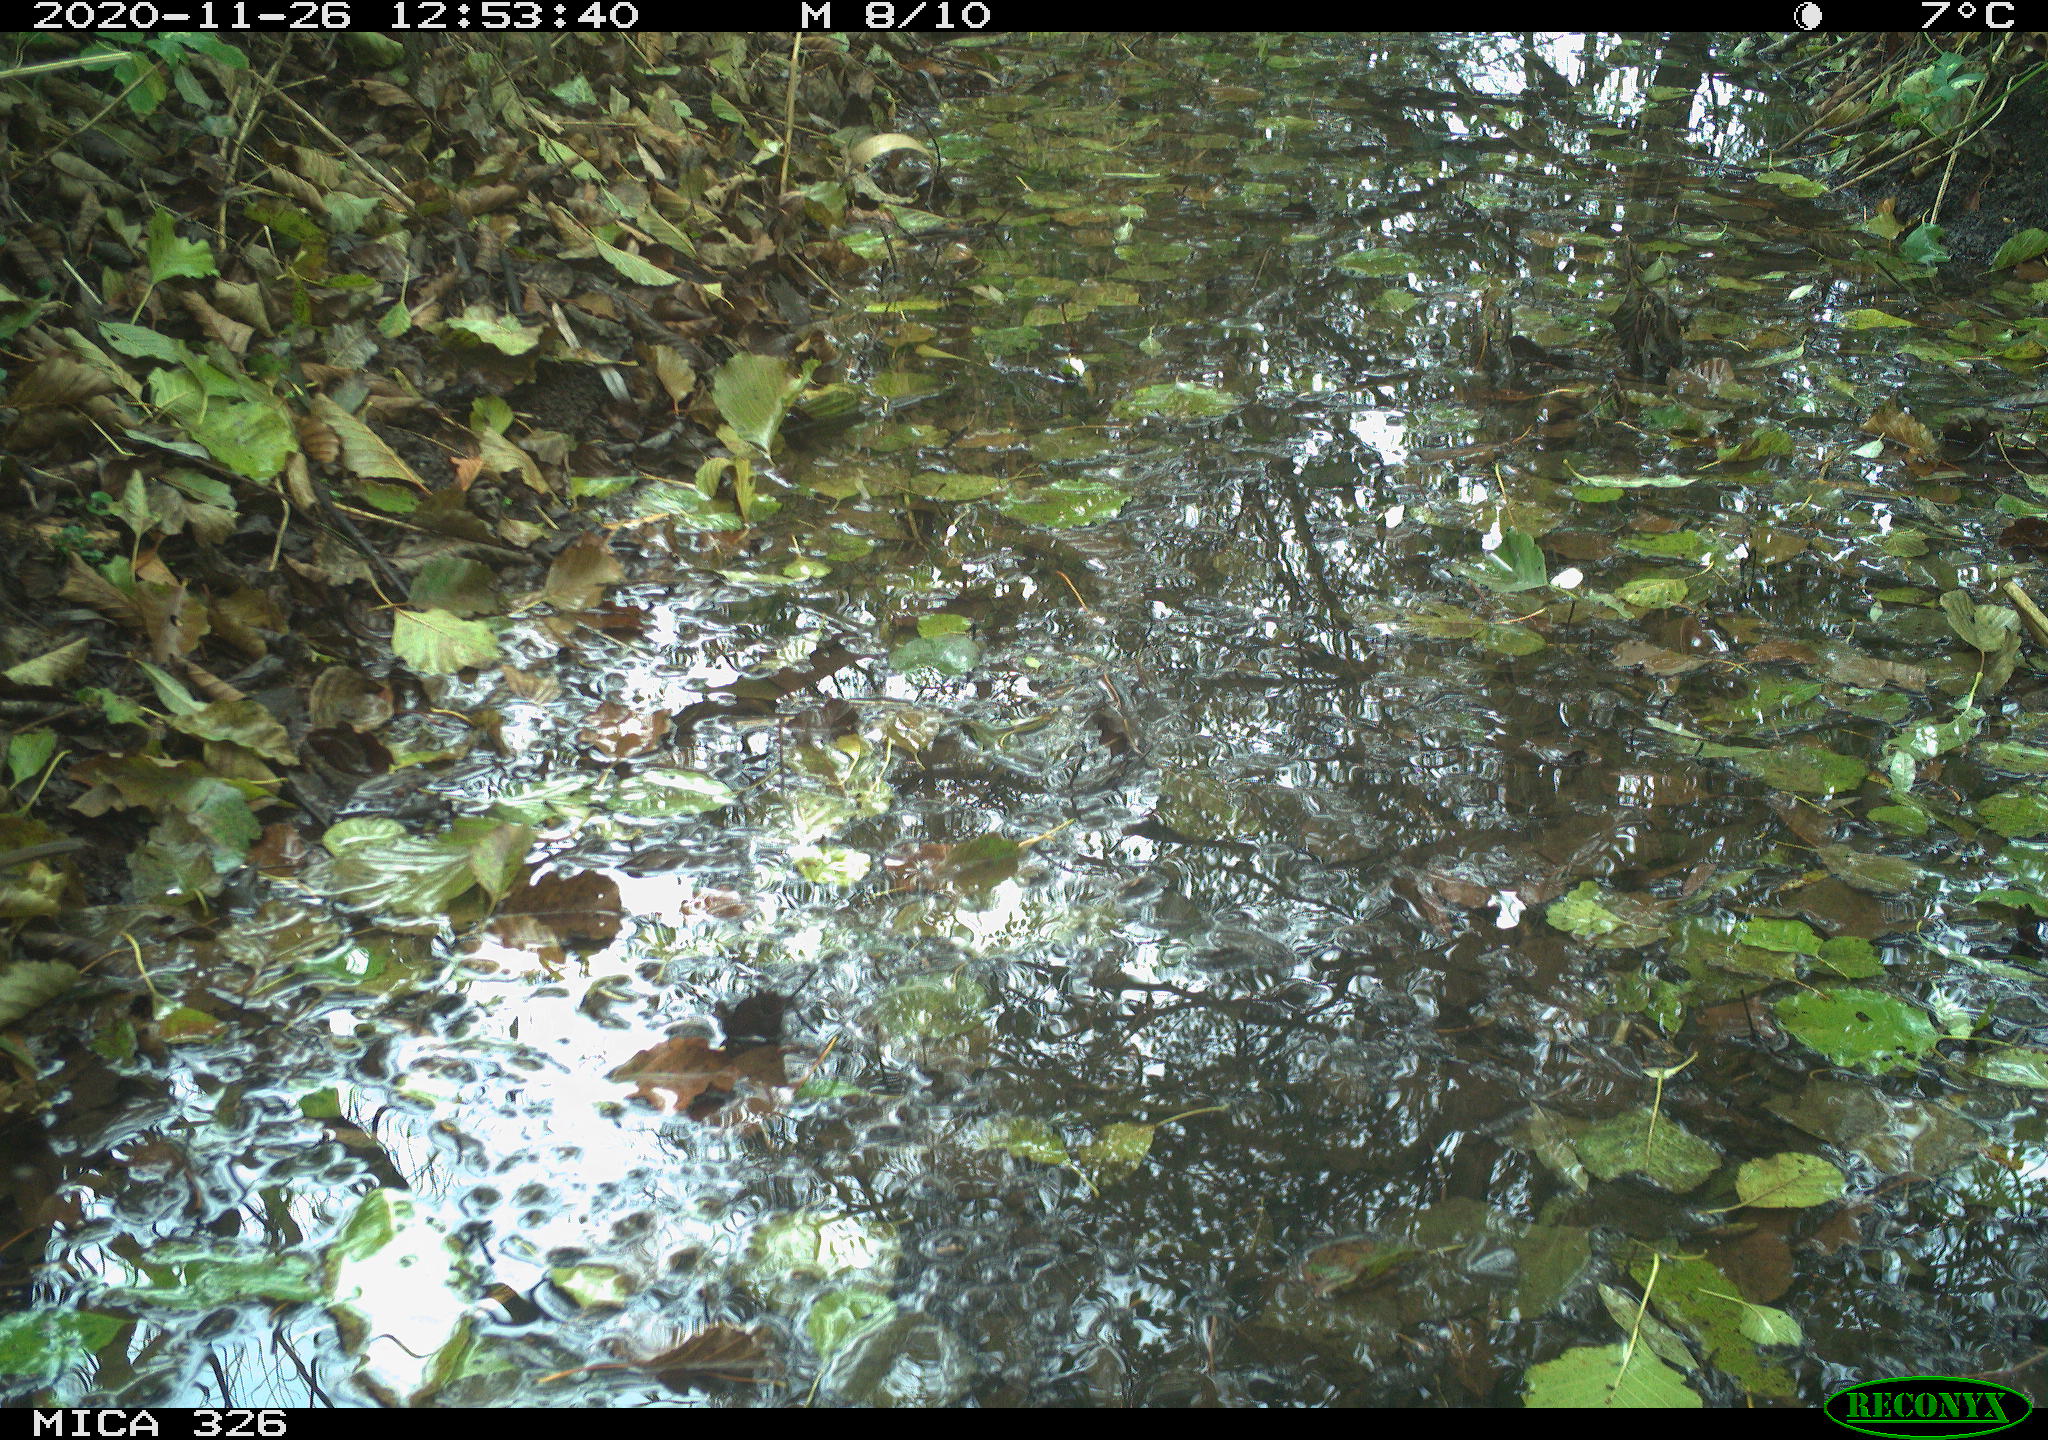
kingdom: Animalia
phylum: Chordata
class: Aves
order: Passeriformes
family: Muscicapidae
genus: Erithacus
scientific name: Erithacus rubecula
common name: European robin
